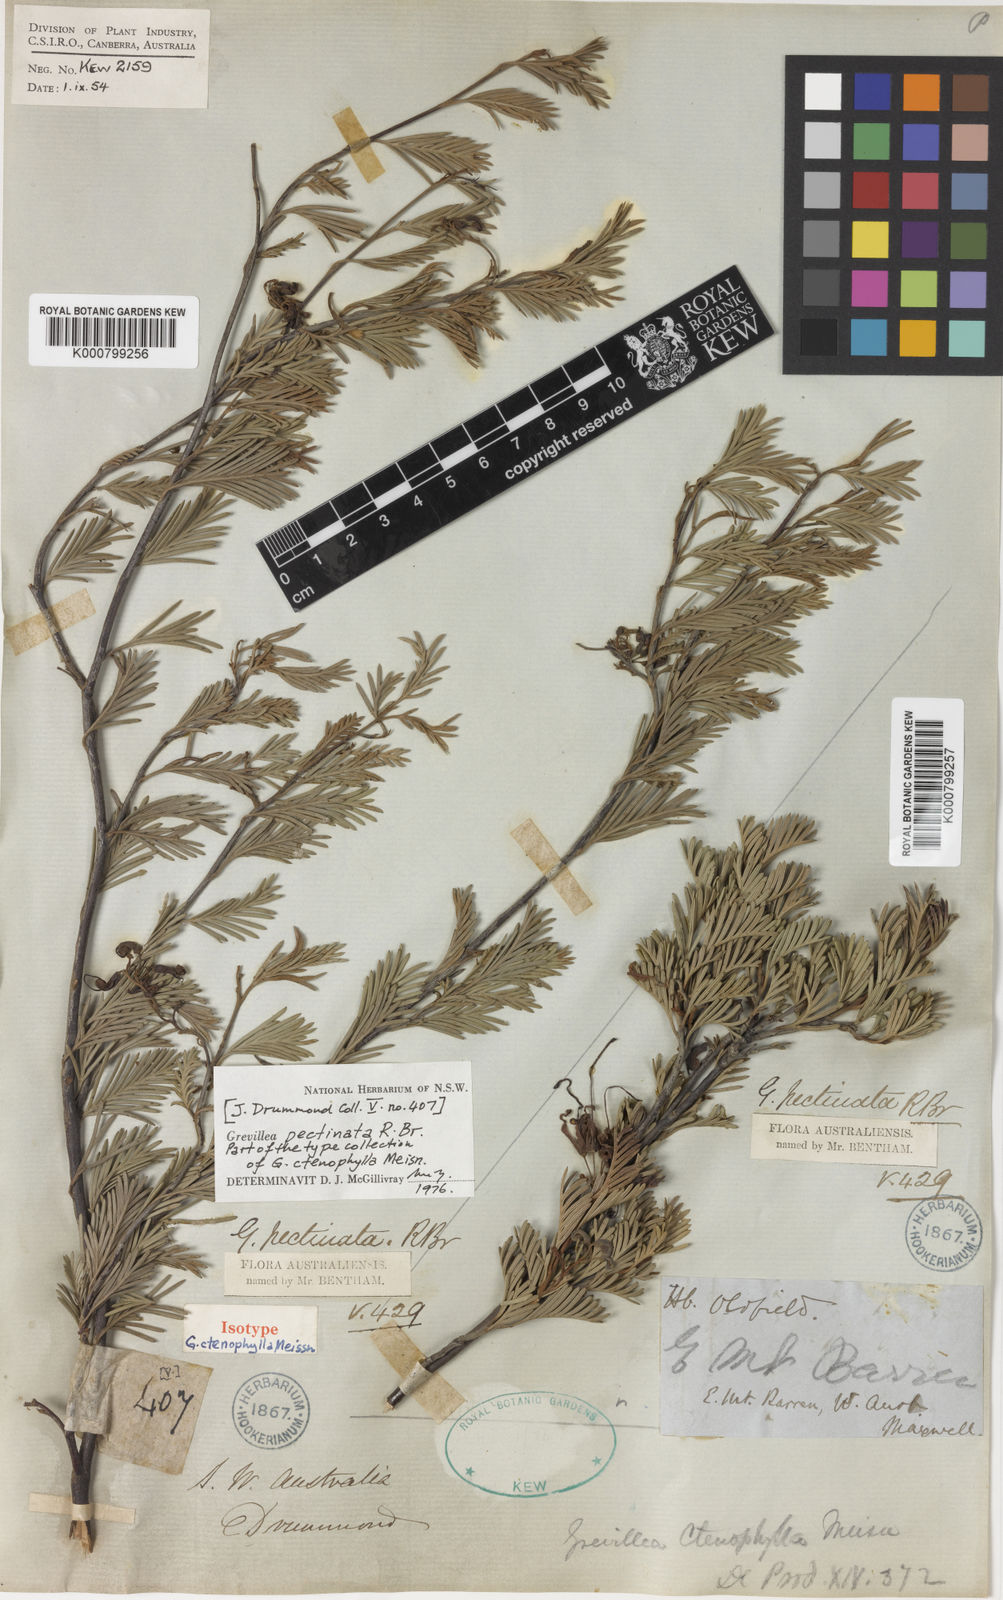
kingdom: Plantae
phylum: Tracheophyta
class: Magnoliopsida
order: Proteales
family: Proteaceae
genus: Grevillea
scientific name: Grevillea pectinata
